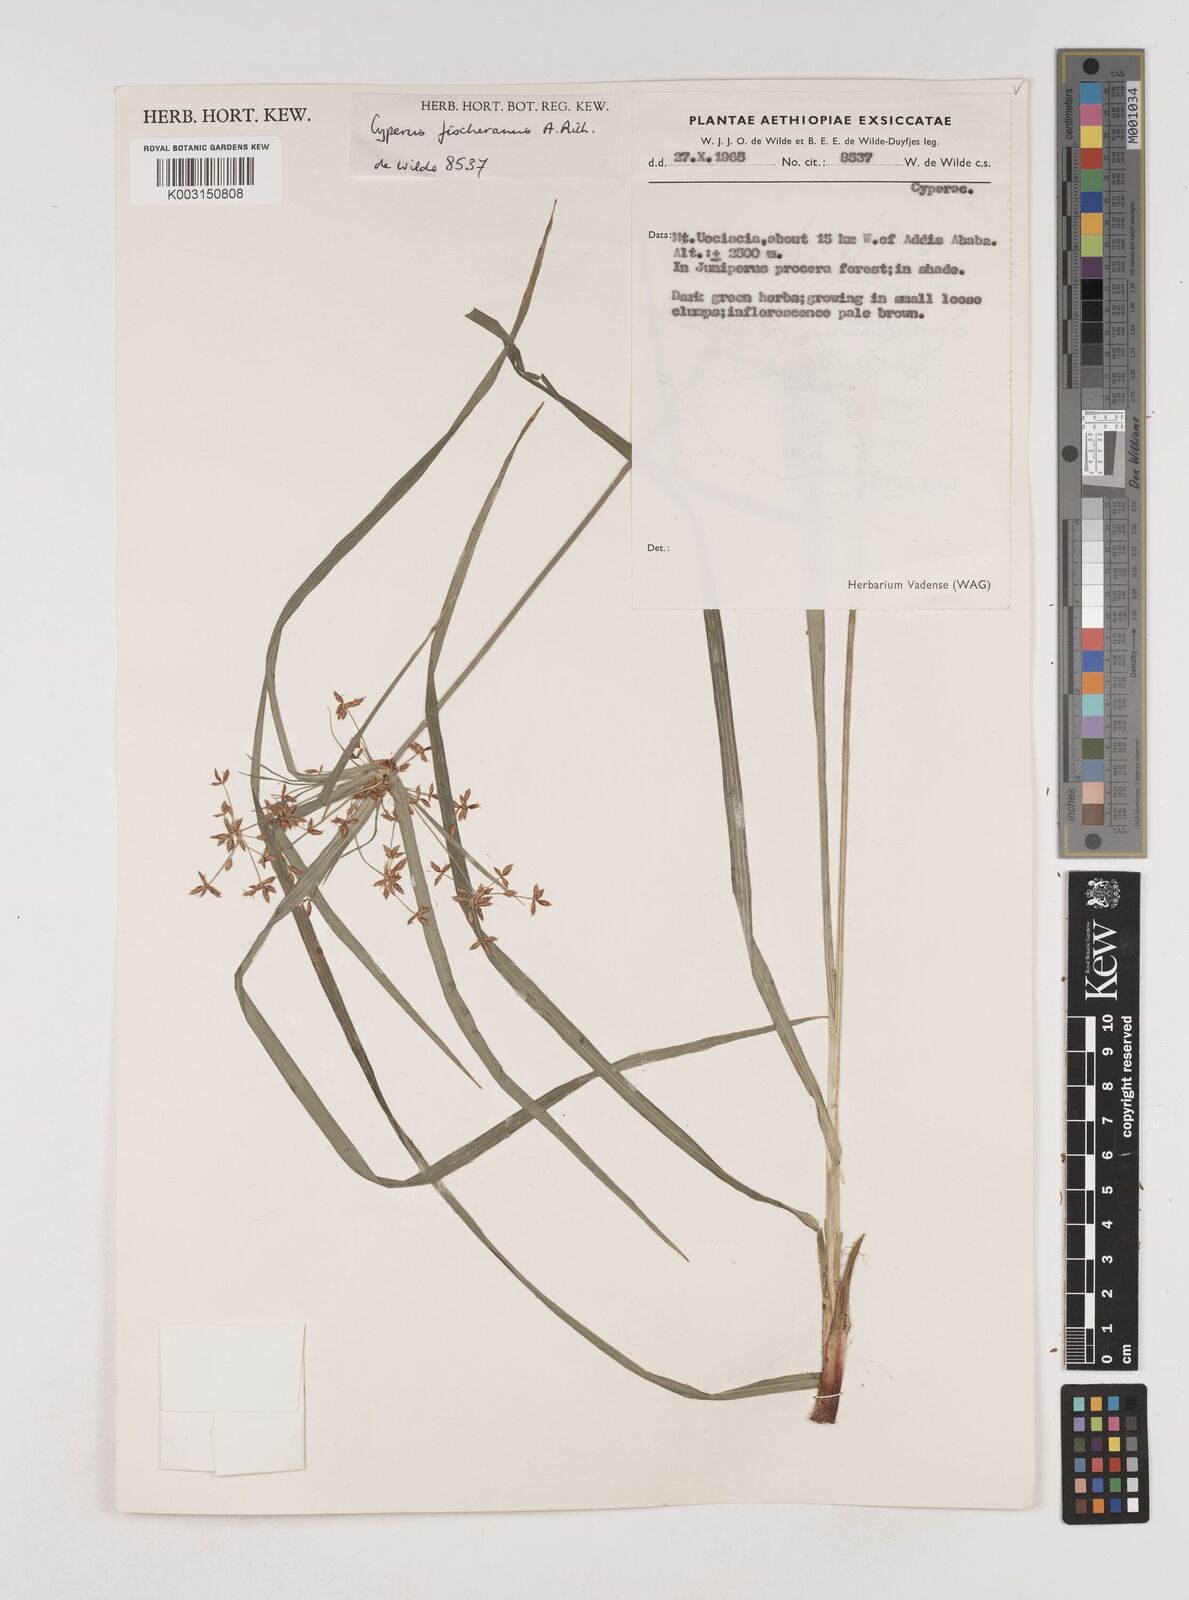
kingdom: Plantae
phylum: Tracheophyta
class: Liliopsida
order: Poales
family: Cyperaceae
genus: Cyperus
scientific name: Cyperus fischerianus
